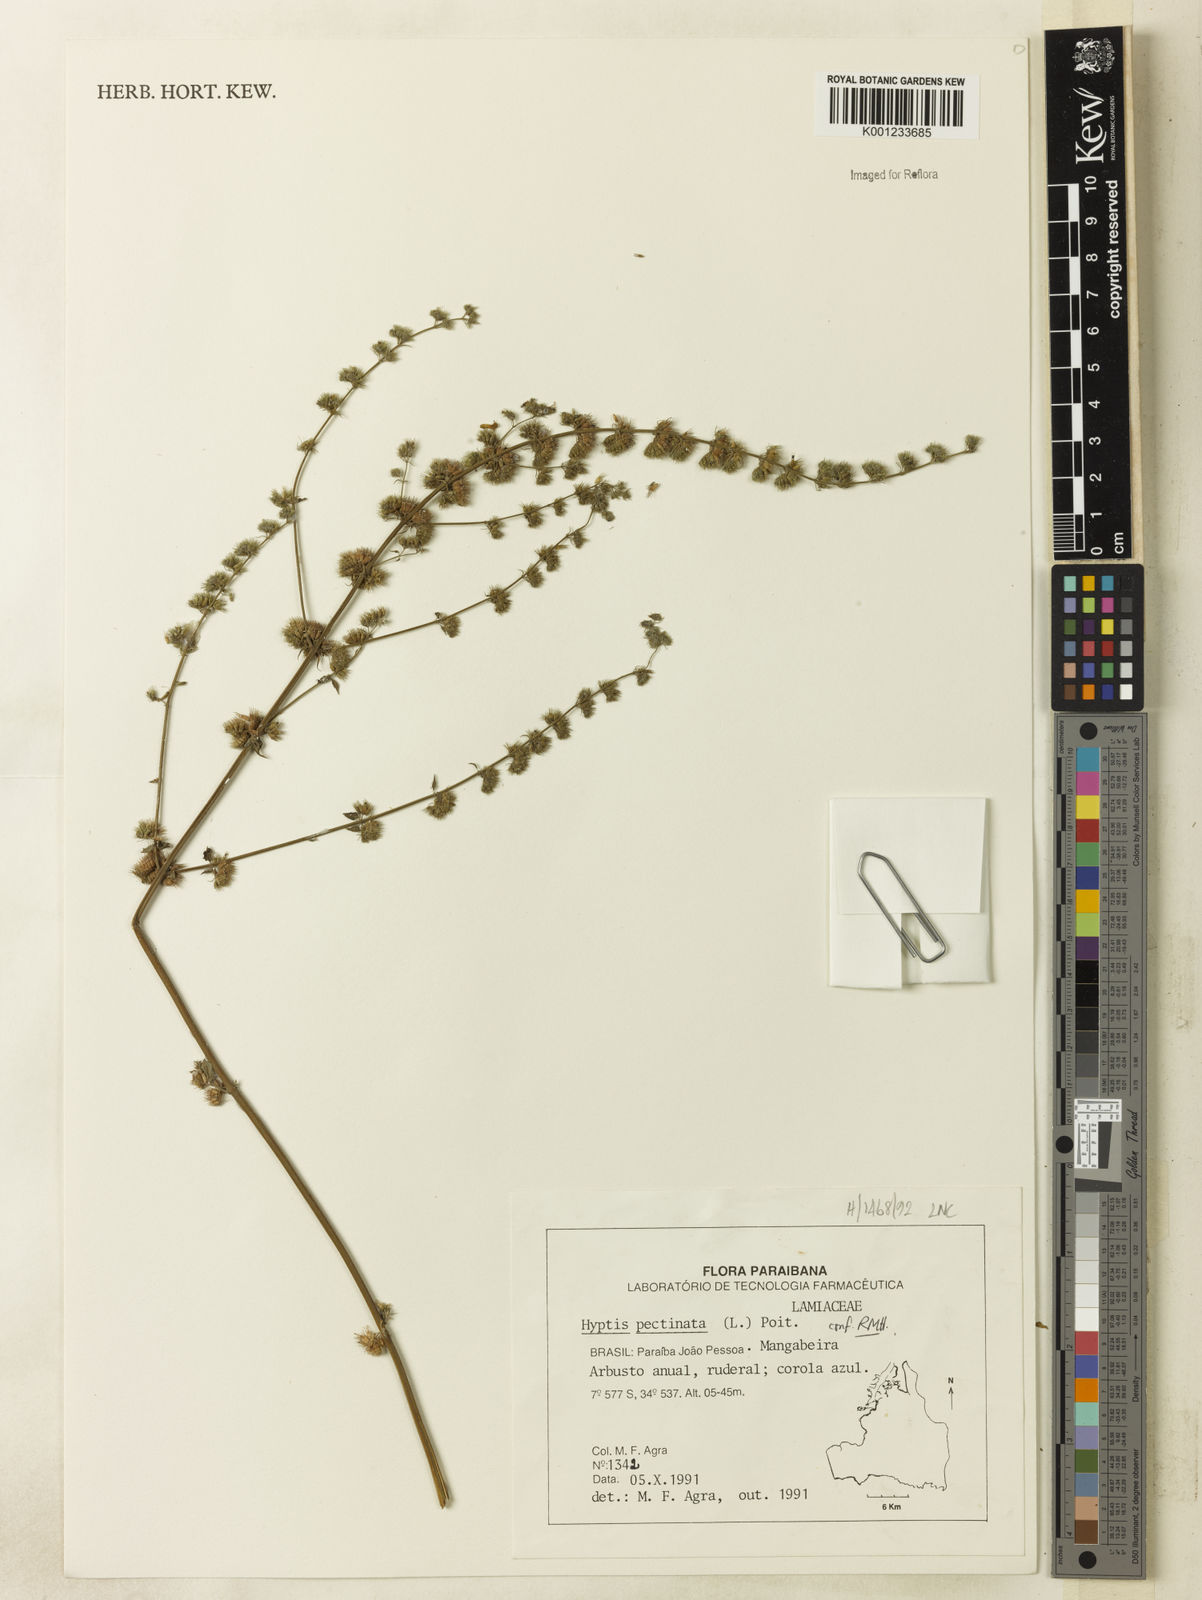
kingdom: Plantae
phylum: Tracheophyta
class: Magnoliopsida
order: Lamiales
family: Lamiaceae
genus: Mesosphaerum
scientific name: Mesosphaerum pectinatum
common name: Comb hyptis
